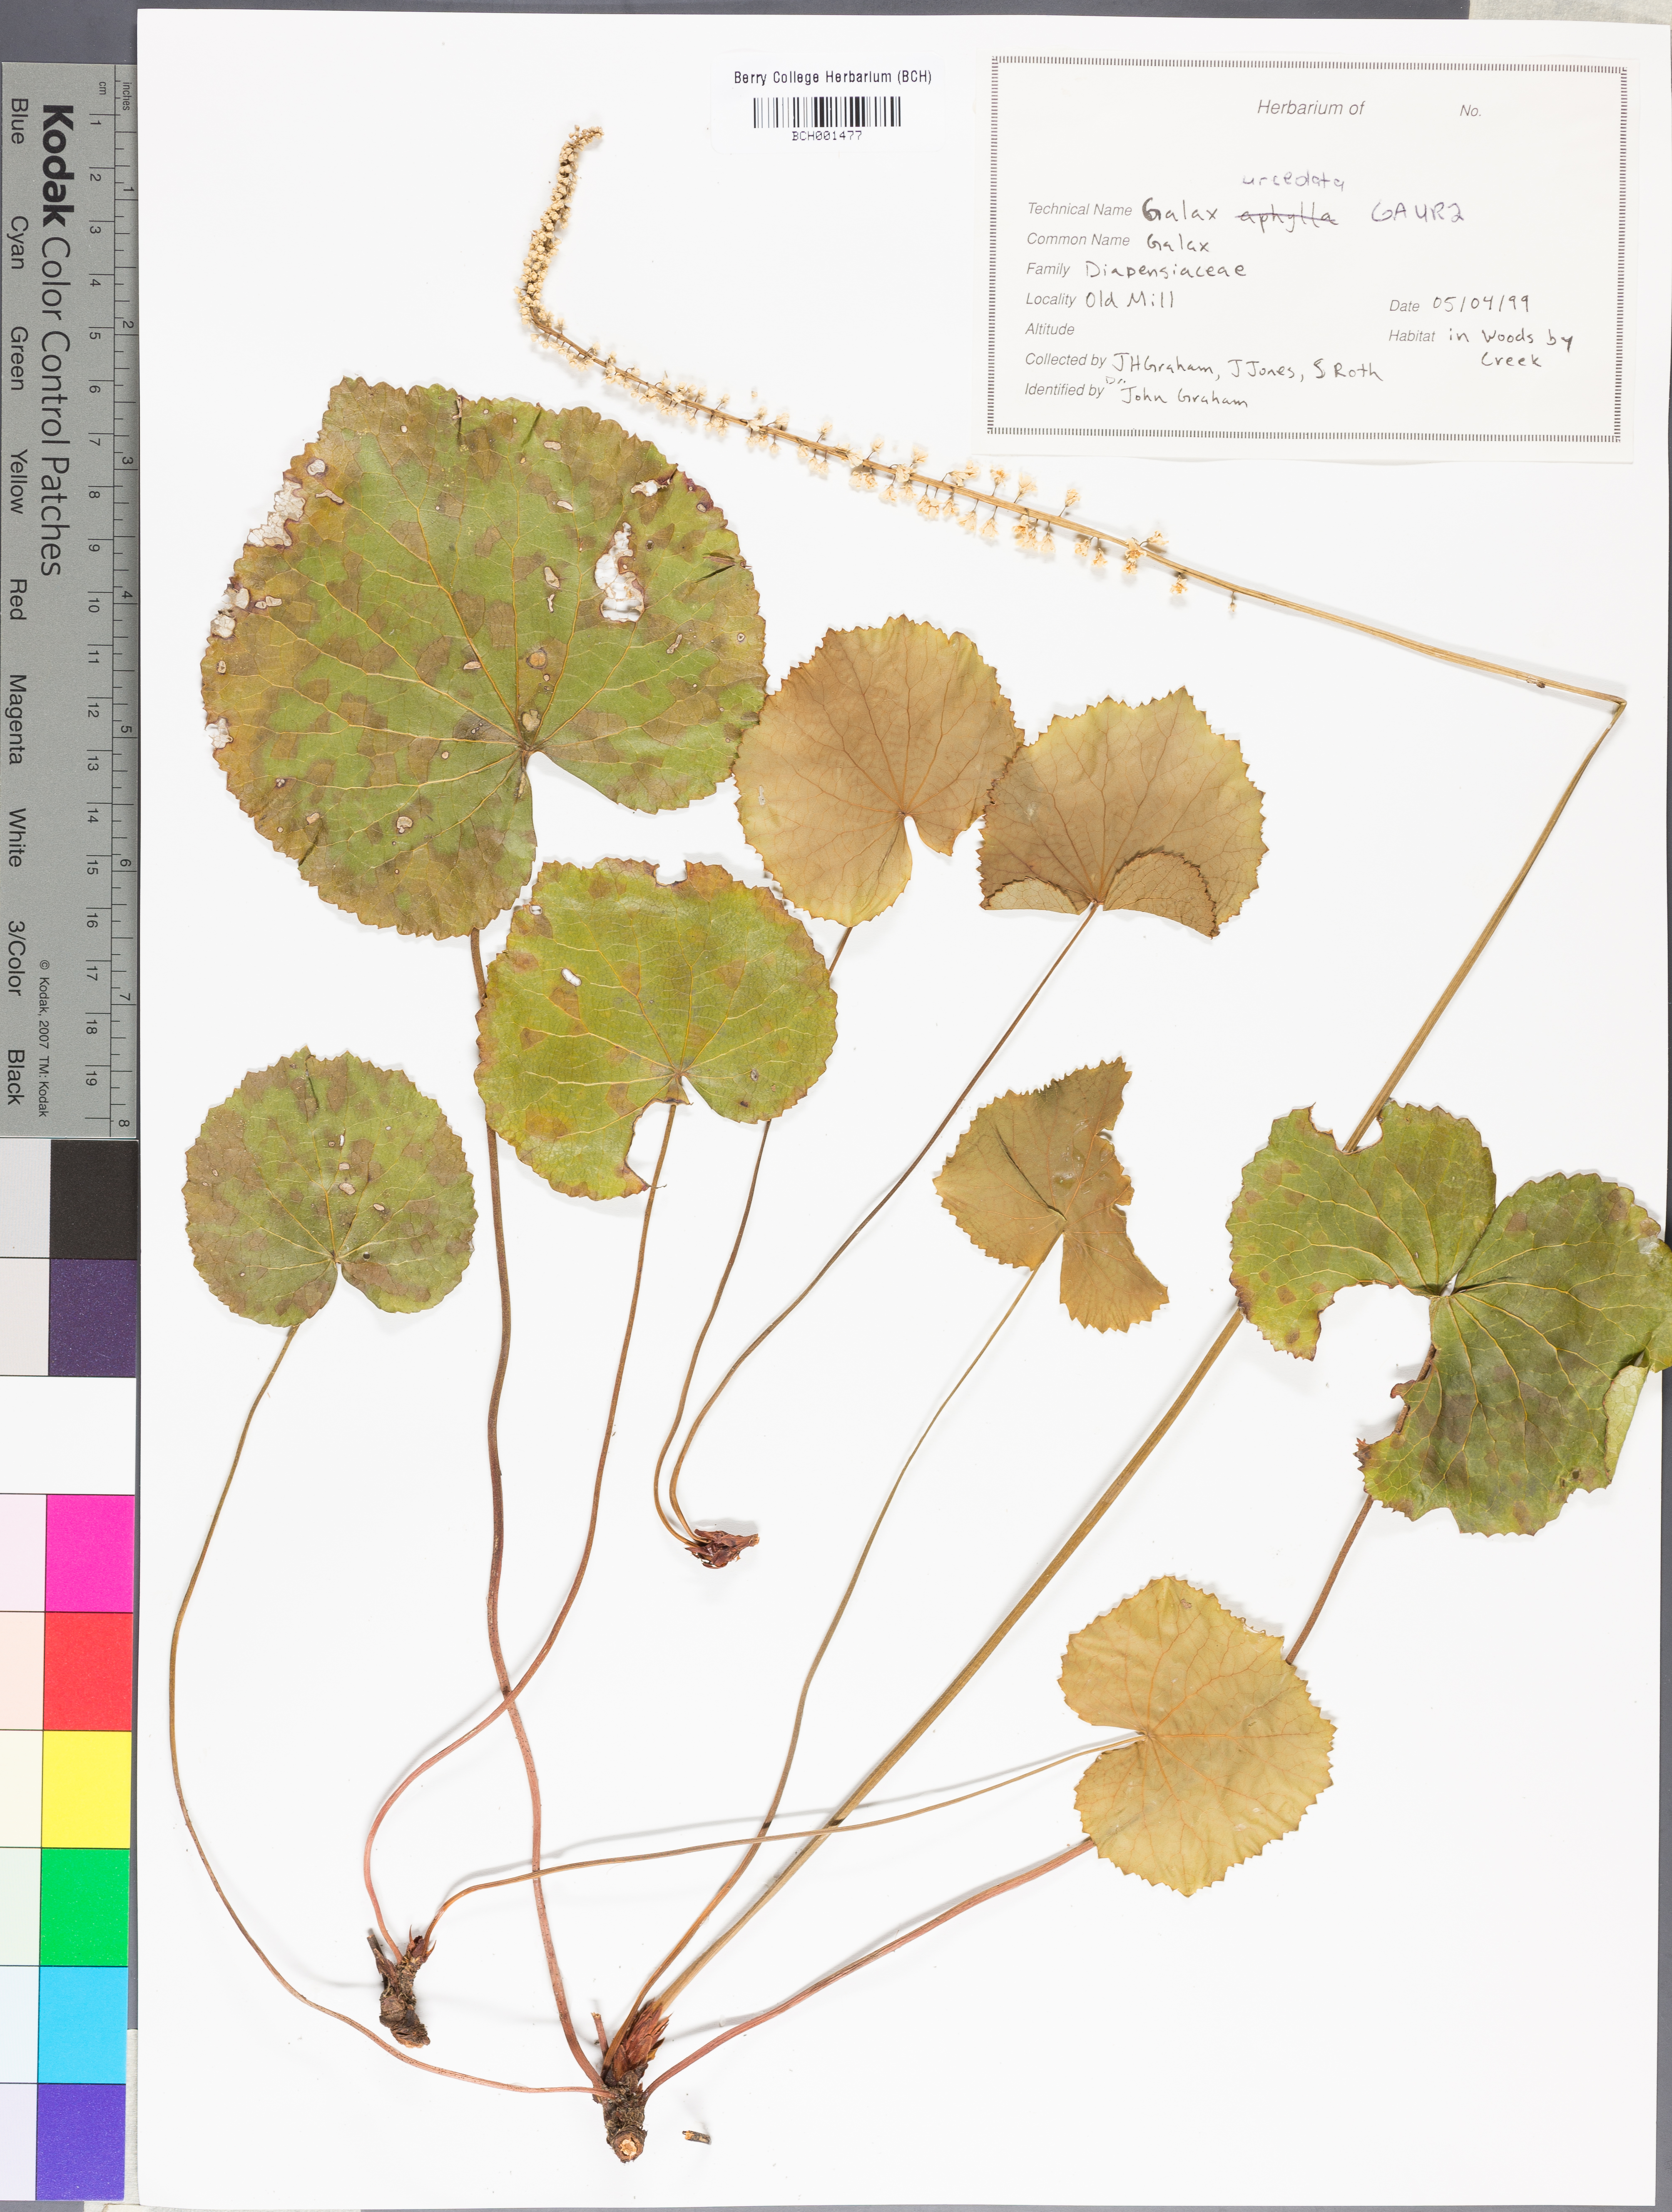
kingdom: Plantae
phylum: Tracheophyta
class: Magnoliopsida
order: Ericales
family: Diapensiaceae
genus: Galax
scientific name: Galax urceolata
